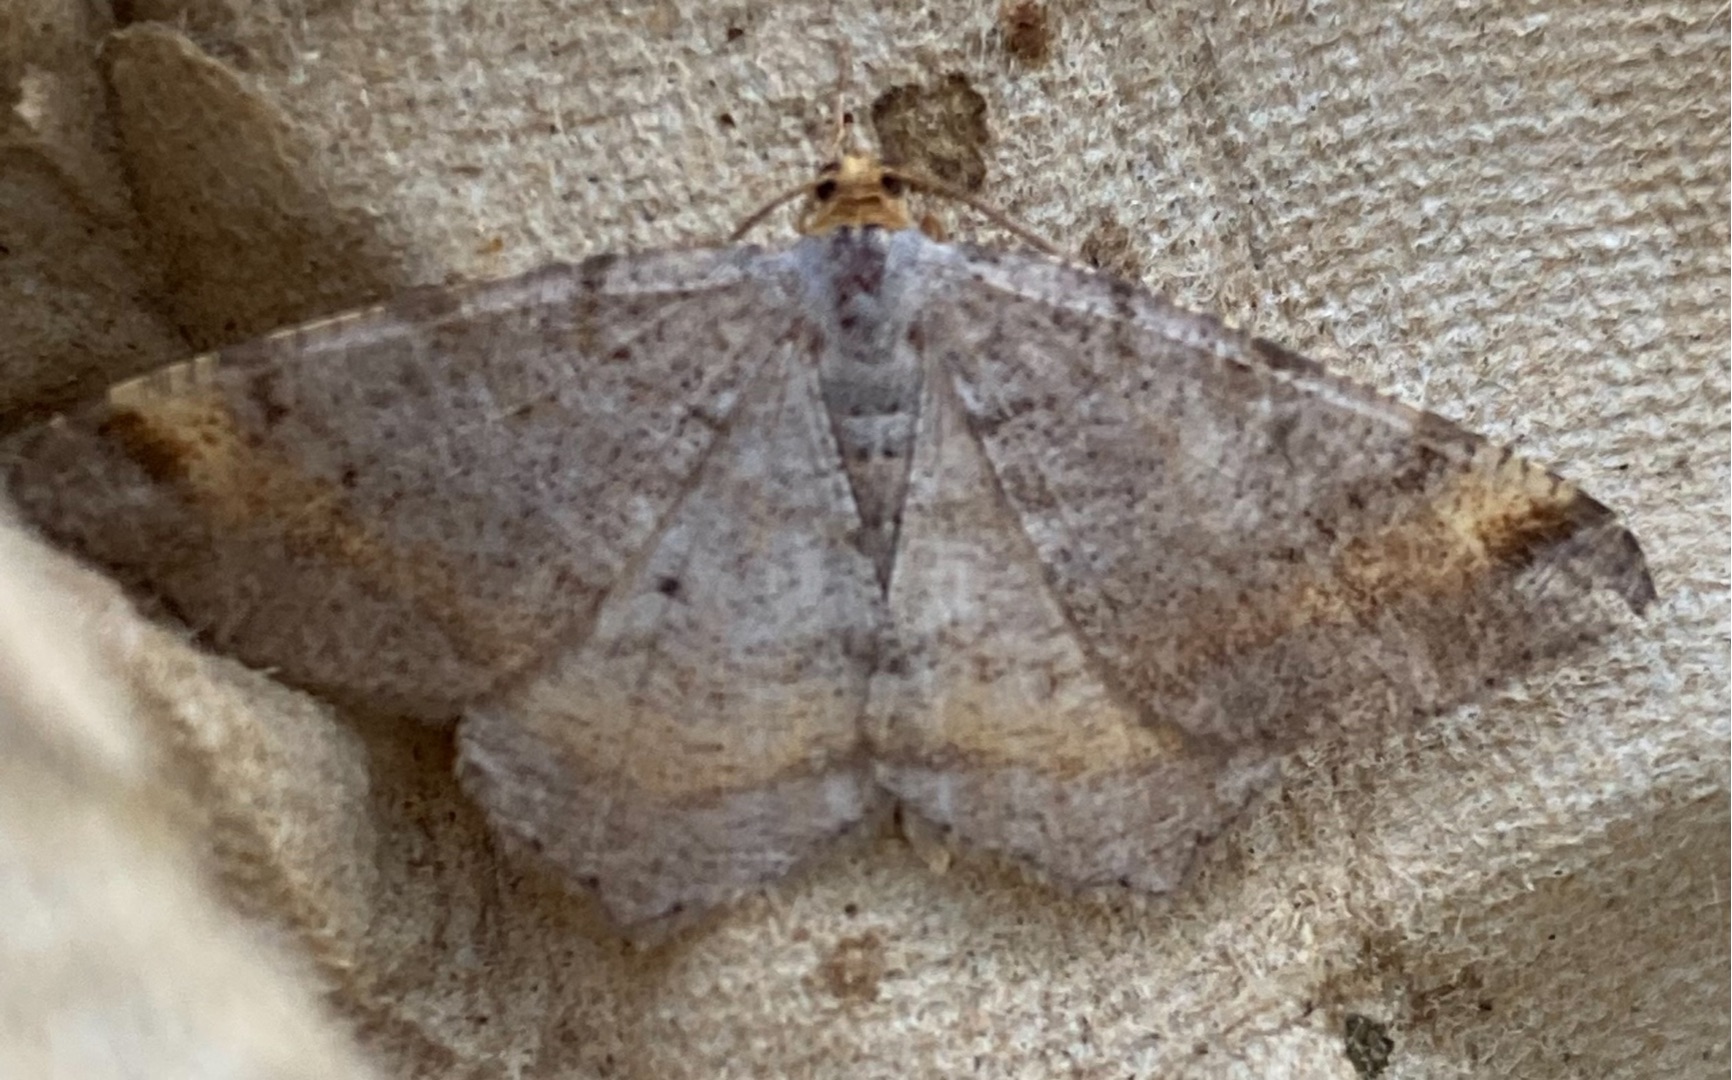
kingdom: Animalia
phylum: Arthropoda
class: Insecta
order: Lepidoptera
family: Geometridae
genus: Macaria
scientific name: Macaria liturata
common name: Fyrre-skovmåler
